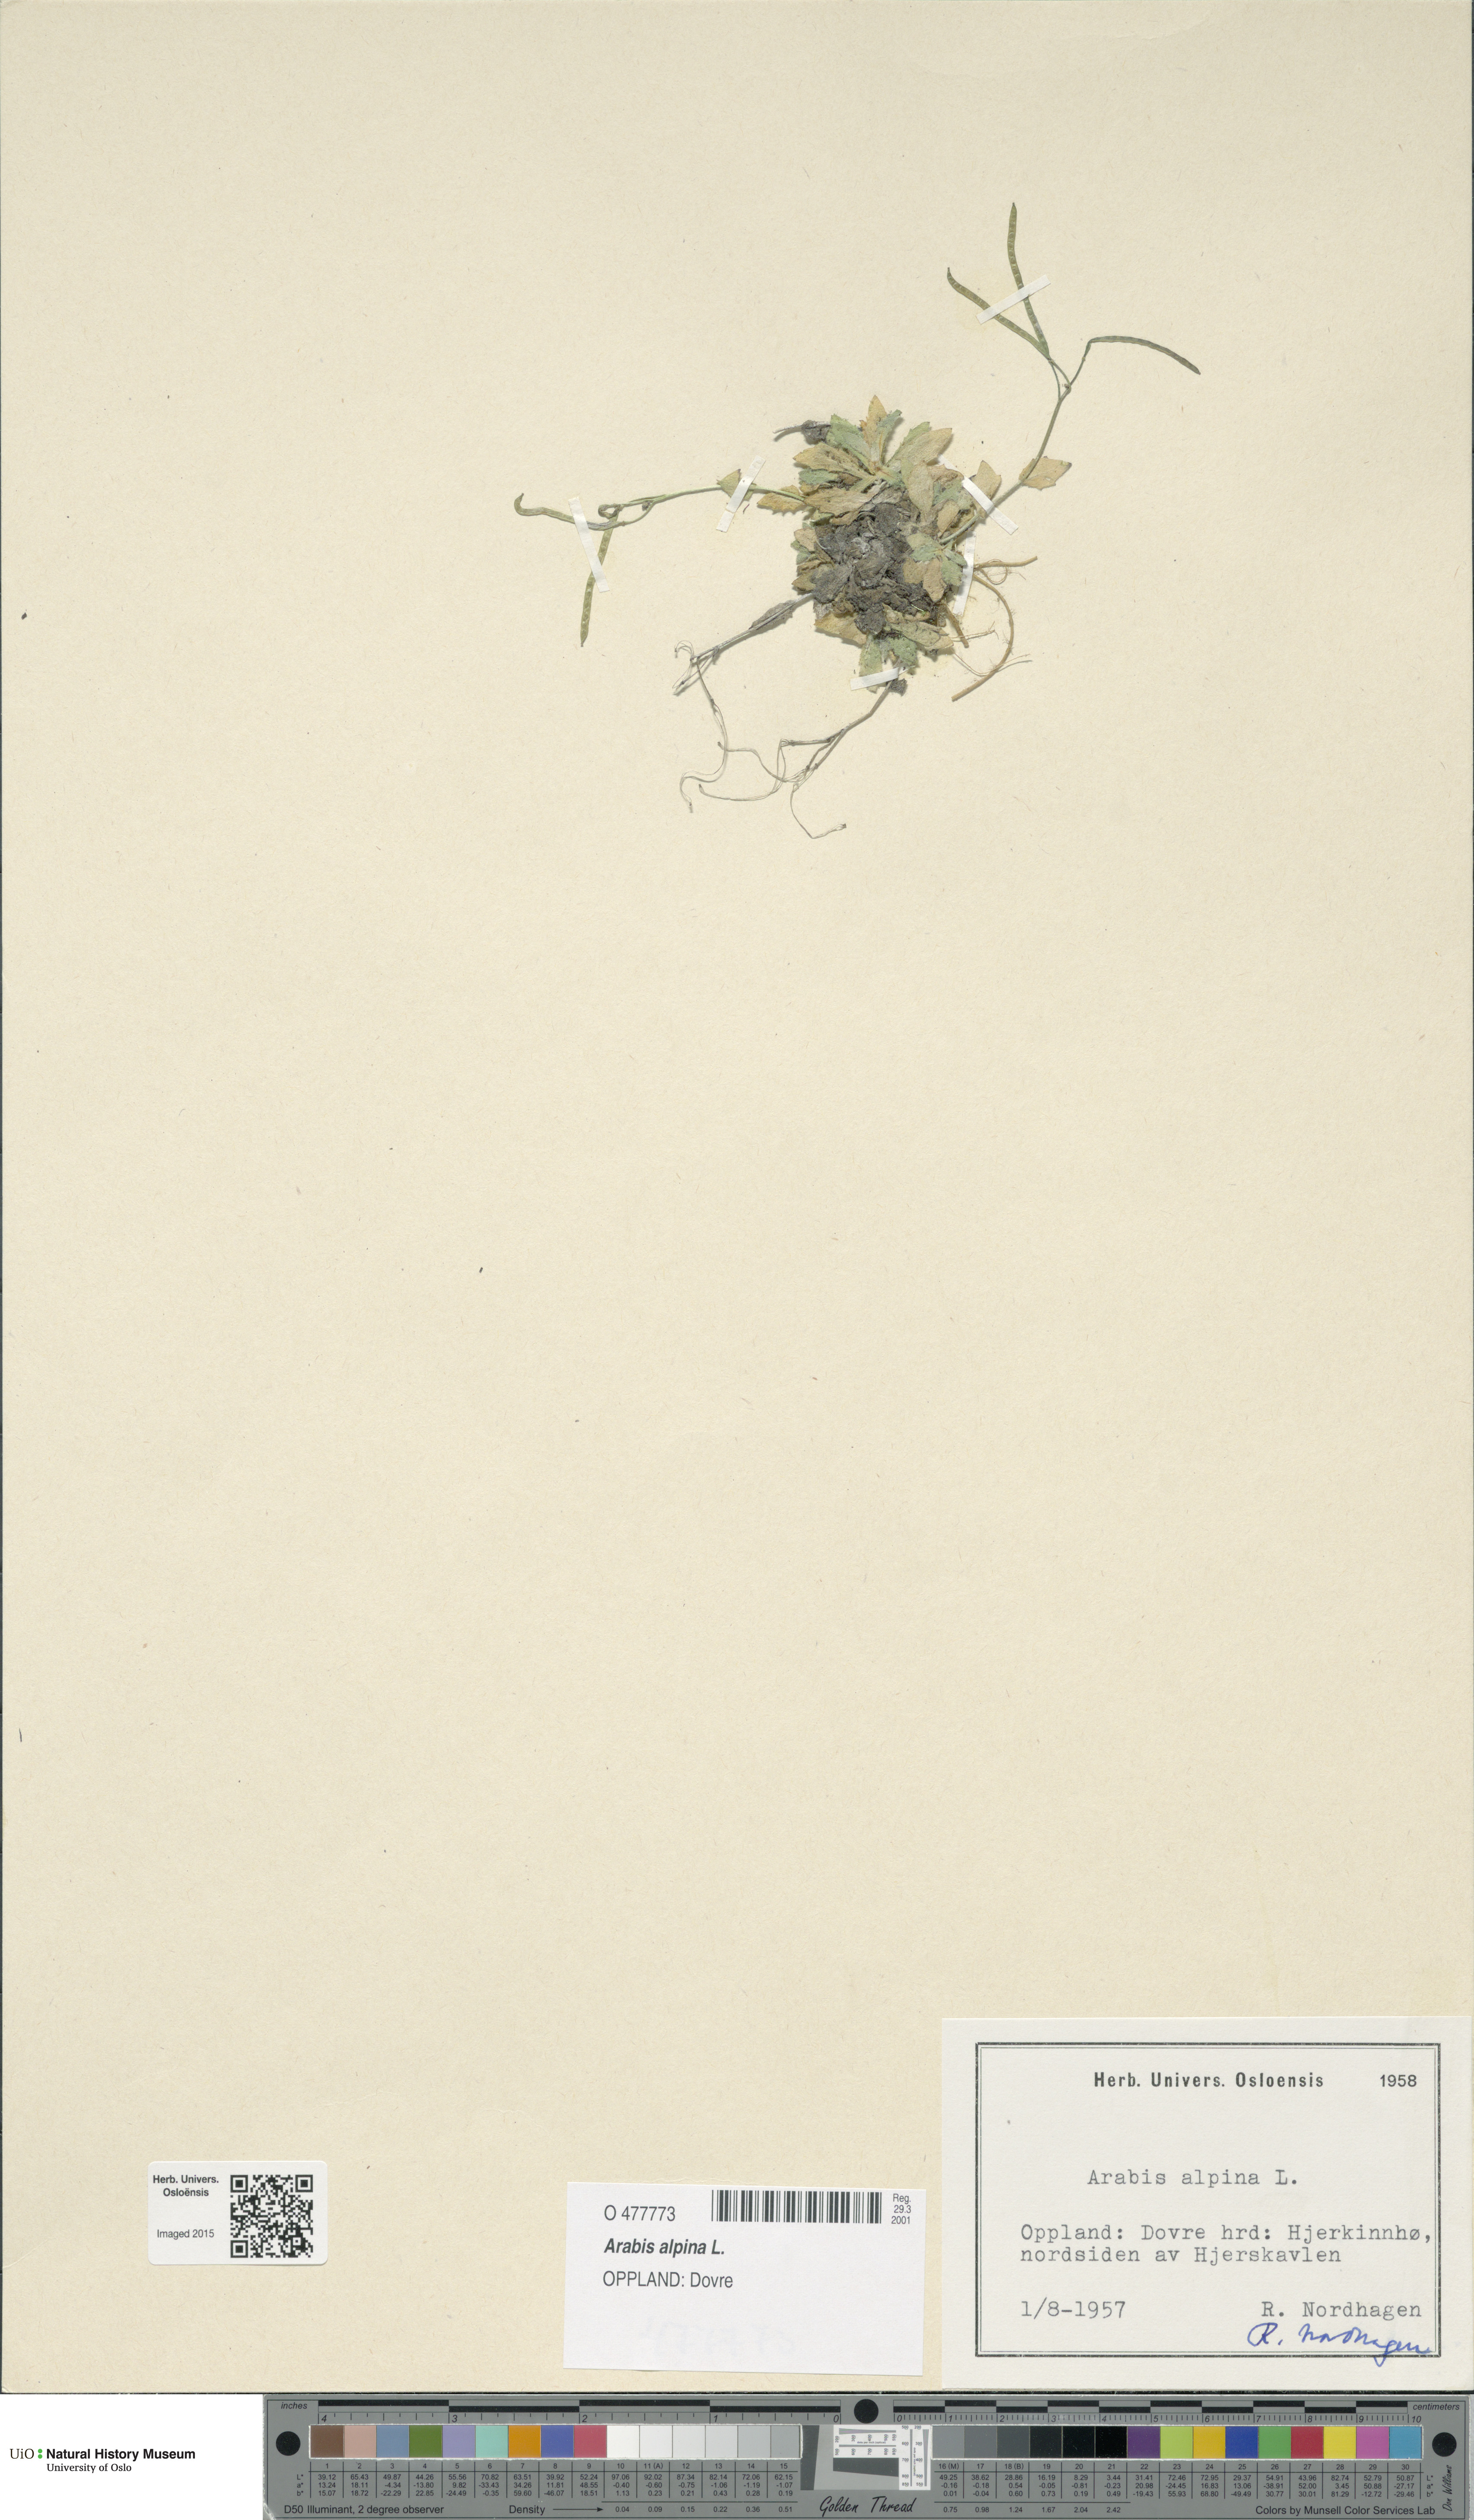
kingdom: Plantae
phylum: Tracheophyta
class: Magnoliopsida
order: Brassicales
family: Brassicaceae
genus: Arabis
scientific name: Arabis alpina
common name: Alpine rock-cress
